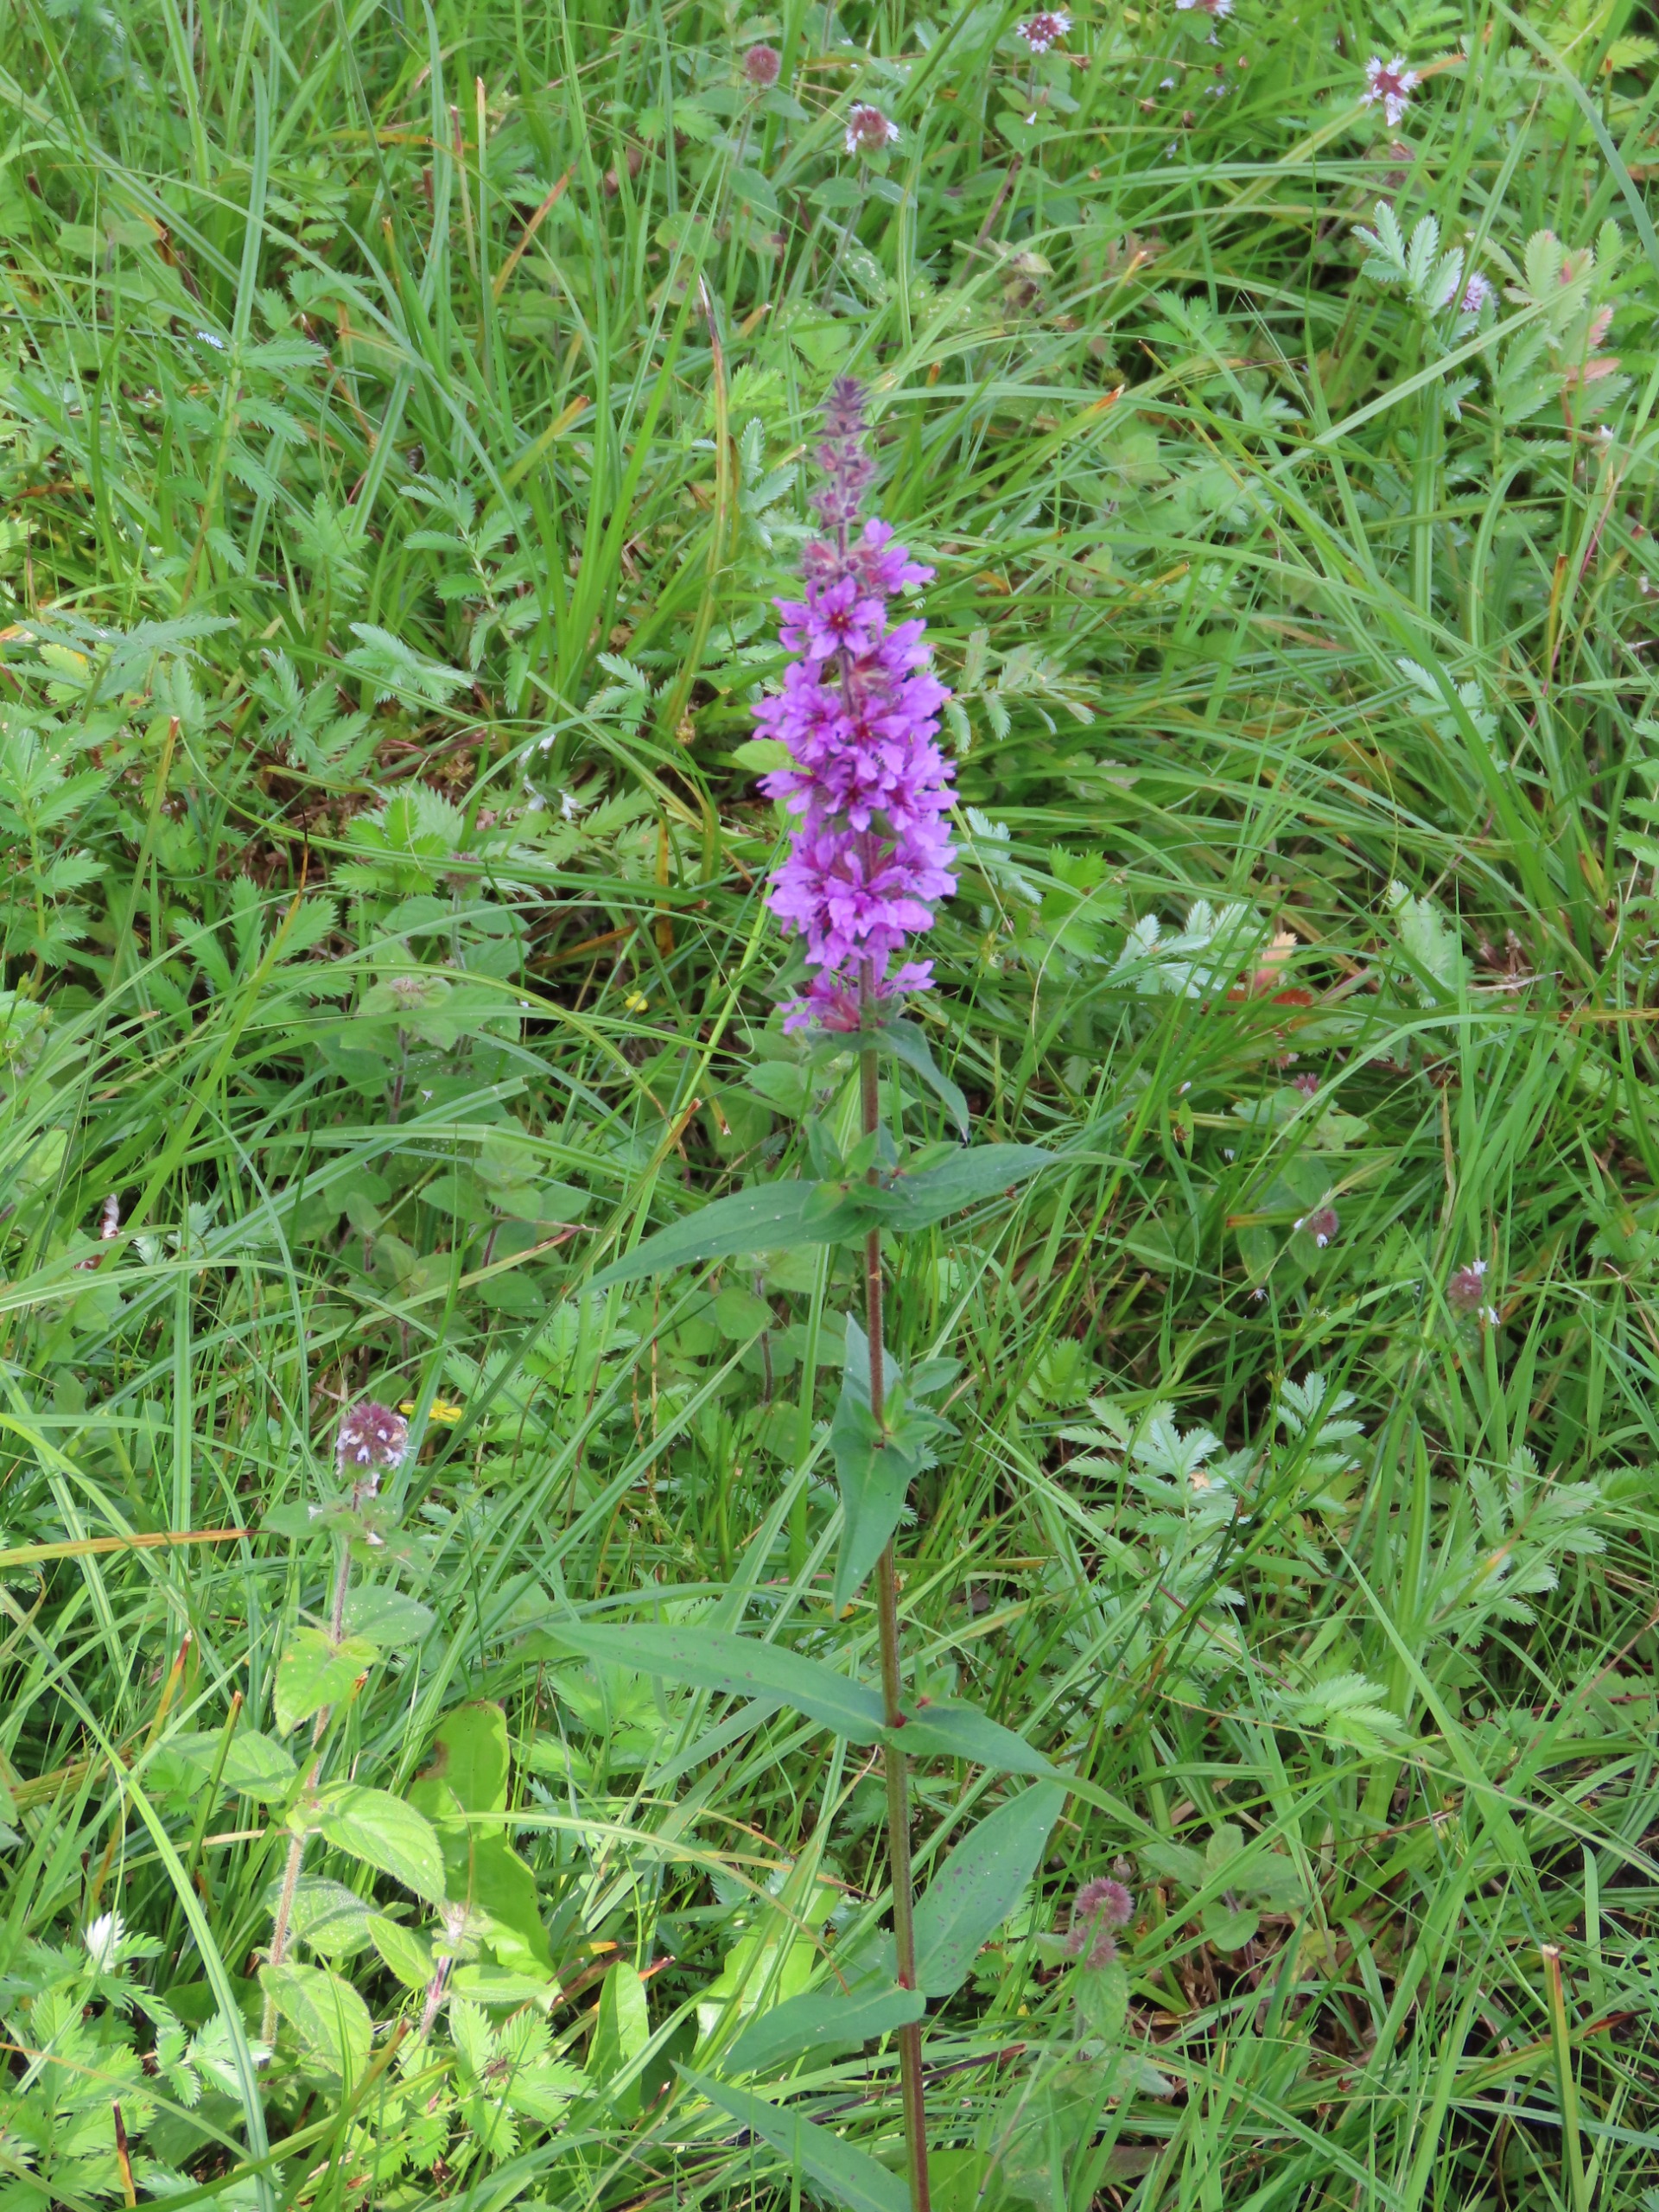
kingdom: Plantae
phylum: Tracheophyta
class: Magnoliopsida
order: Myrtales
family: Lythraceae
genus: Lythrum
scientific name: Lythrum salicaria
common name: Kattehale
